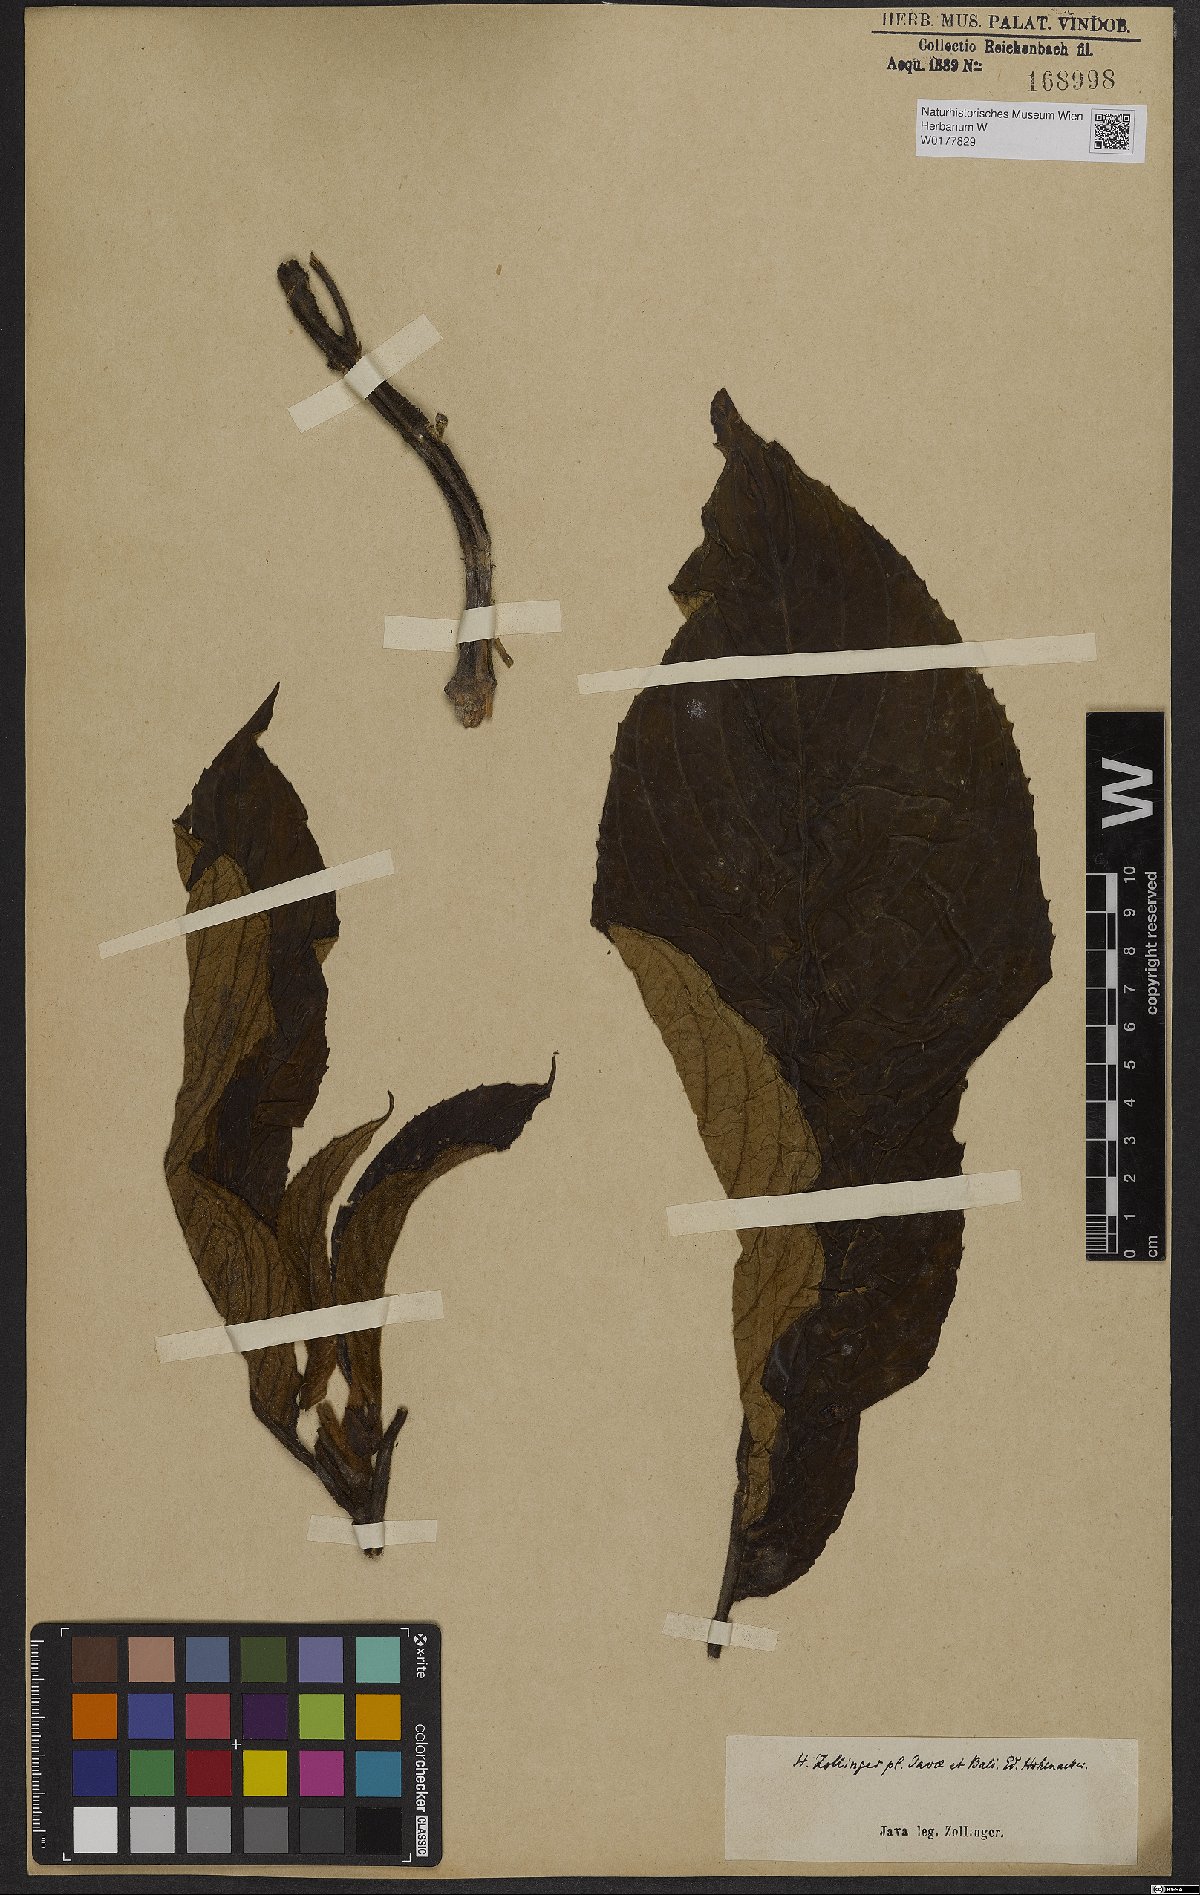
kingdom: Plantae
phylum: Tracheophyta
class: Magnoliopsida
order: Lamiales
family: Gesneriaceae
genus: Cyrtandra
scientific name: Cyrtandra
